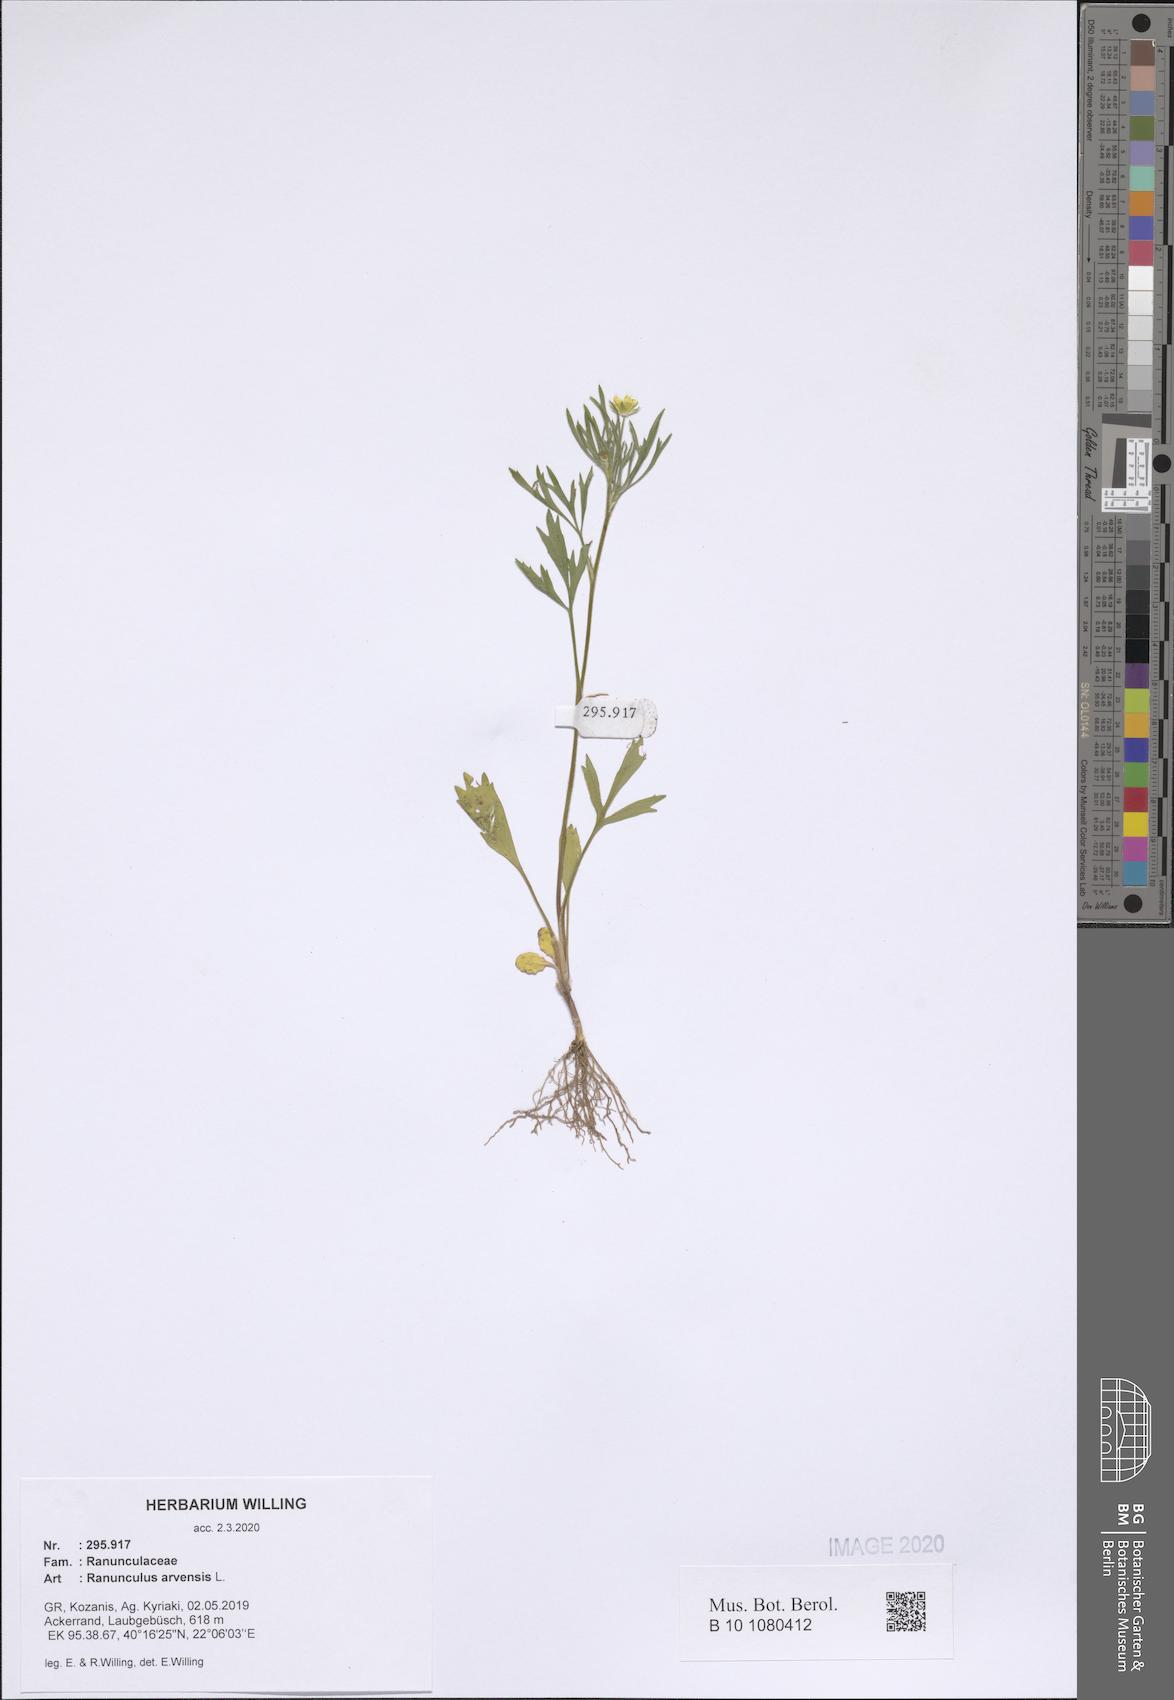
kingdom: Plantae
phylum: Tracheophyta
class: Magnoliopsida
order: Ranunculales
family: Ranunculaceae
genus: Ranunculus
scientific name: Ranunculus arvensis
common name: Corn buttercup
